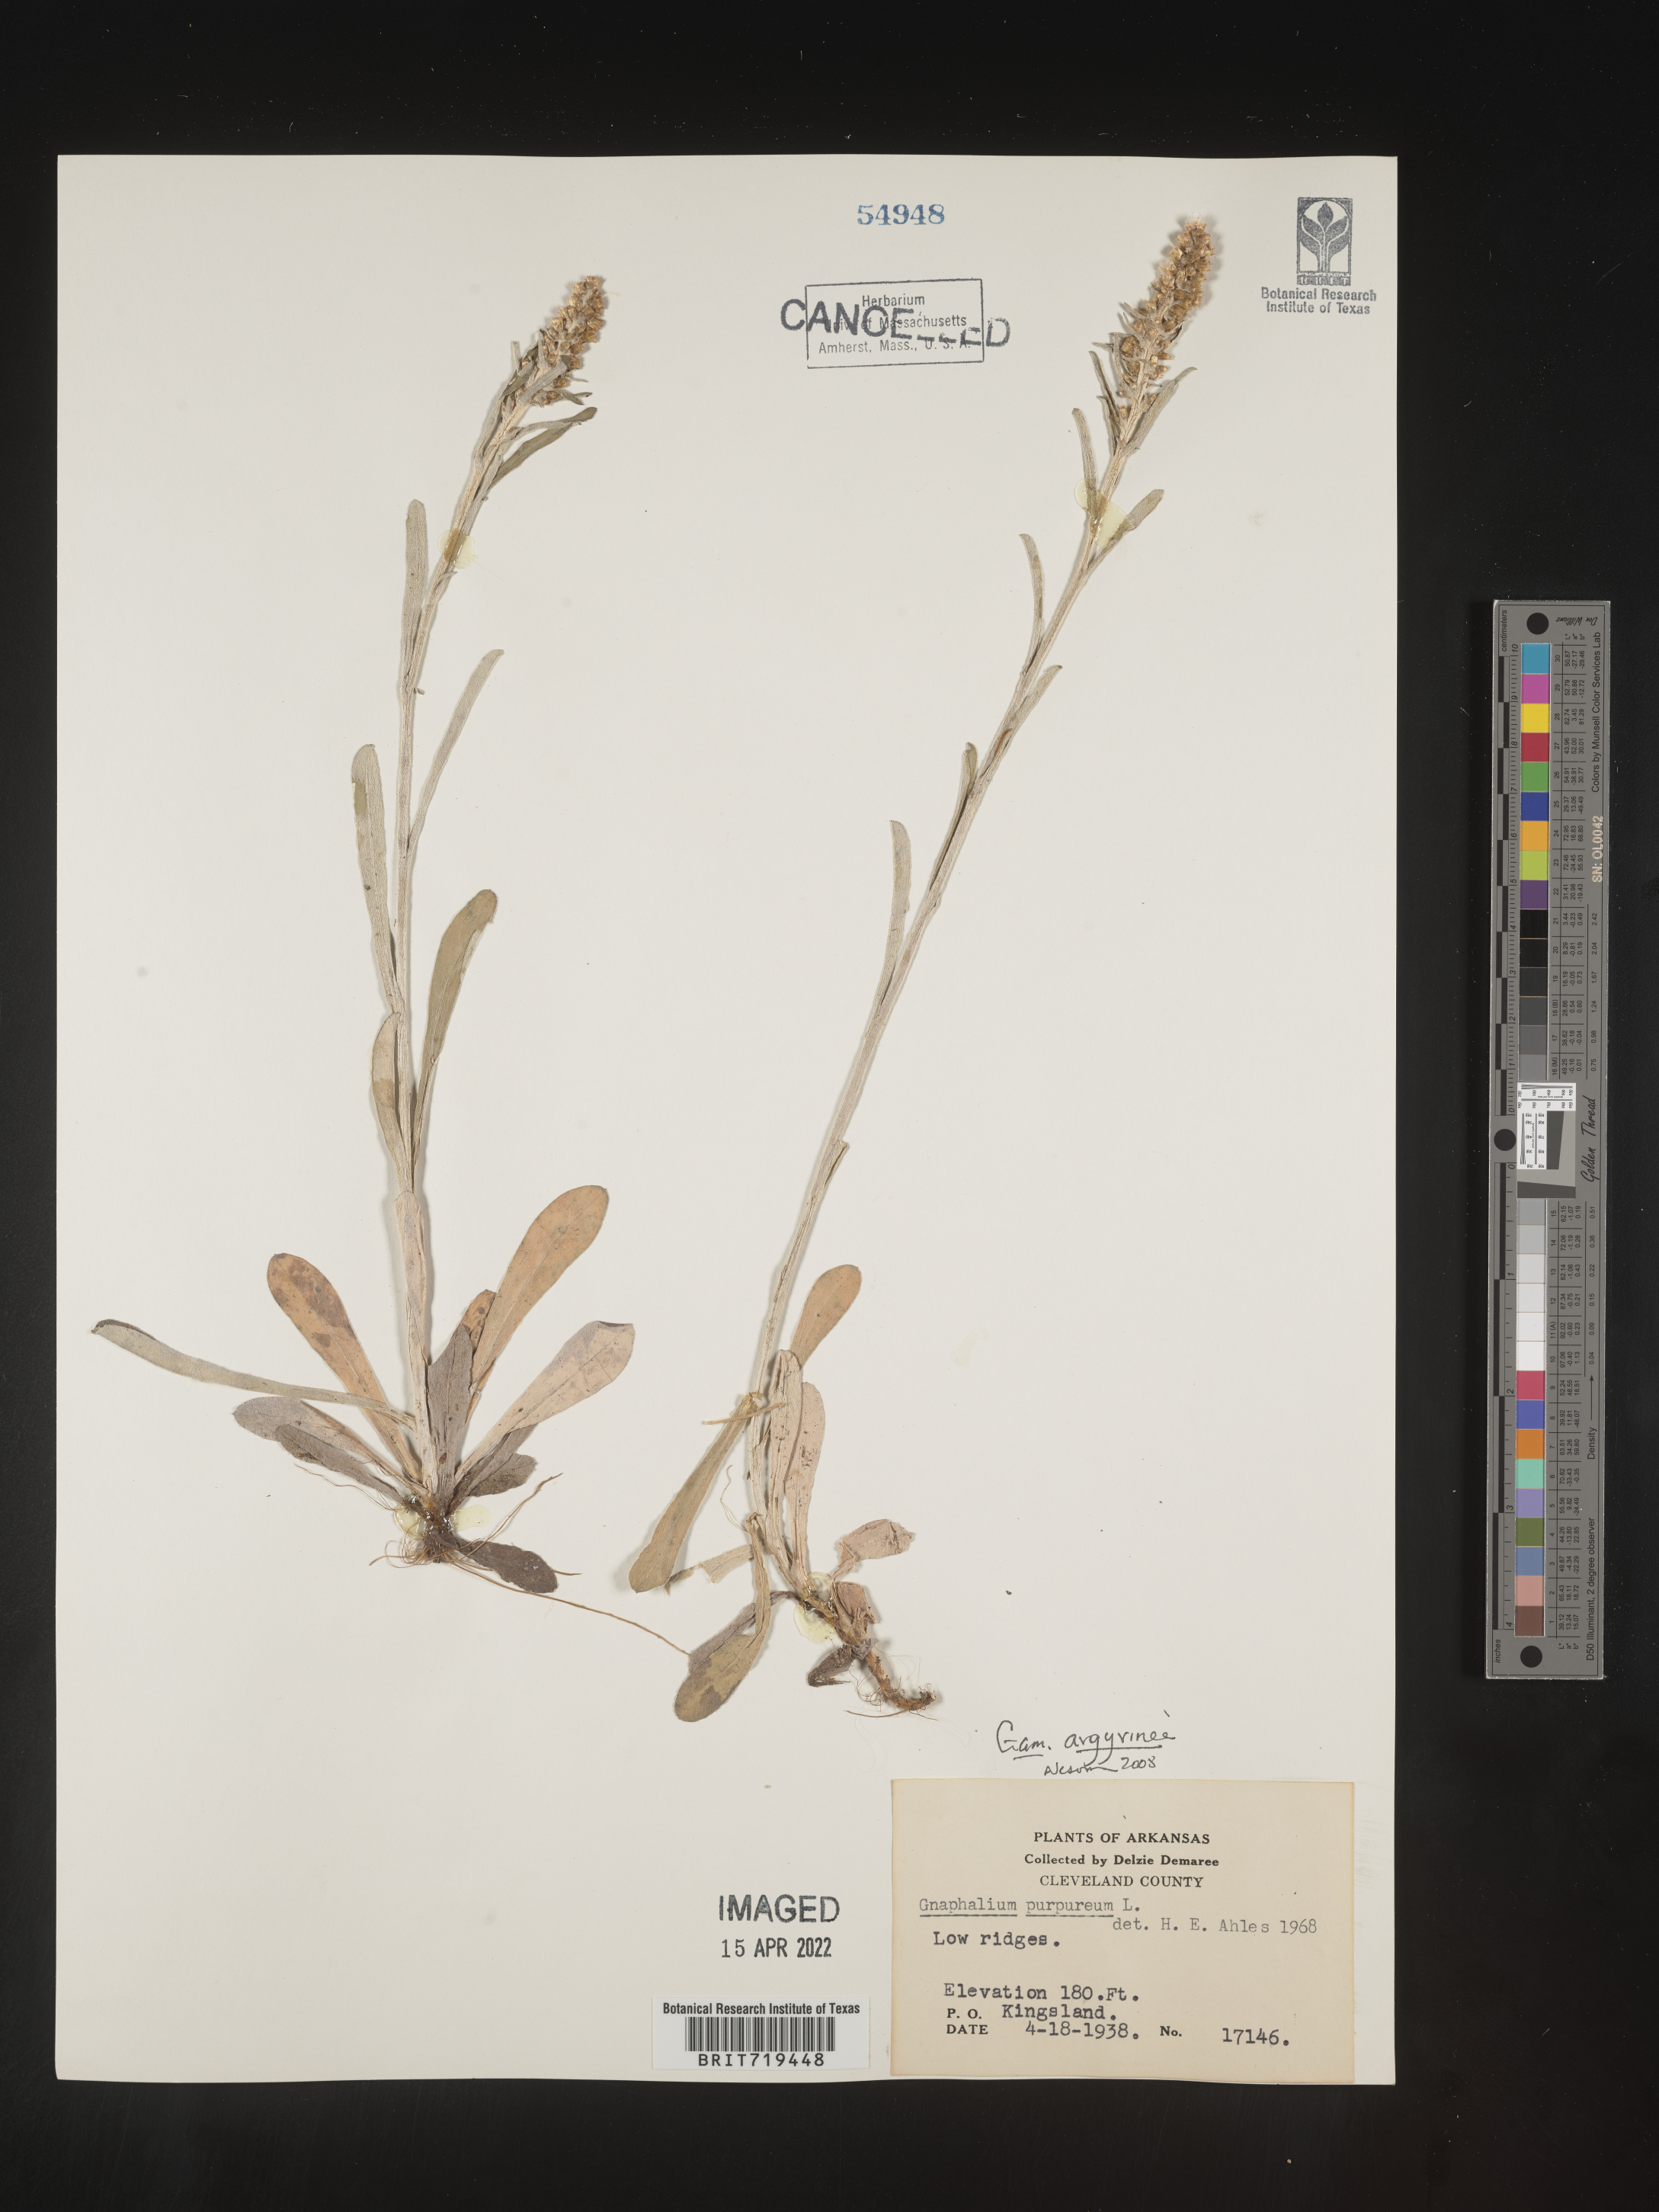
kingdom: Plantae
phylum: Tracheophyta
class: Magnoliopsida
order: Asterales
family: Asteraceae
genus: Gamochaeta
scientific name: Gamochaeta argyrinea
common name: Silvery cudweed
